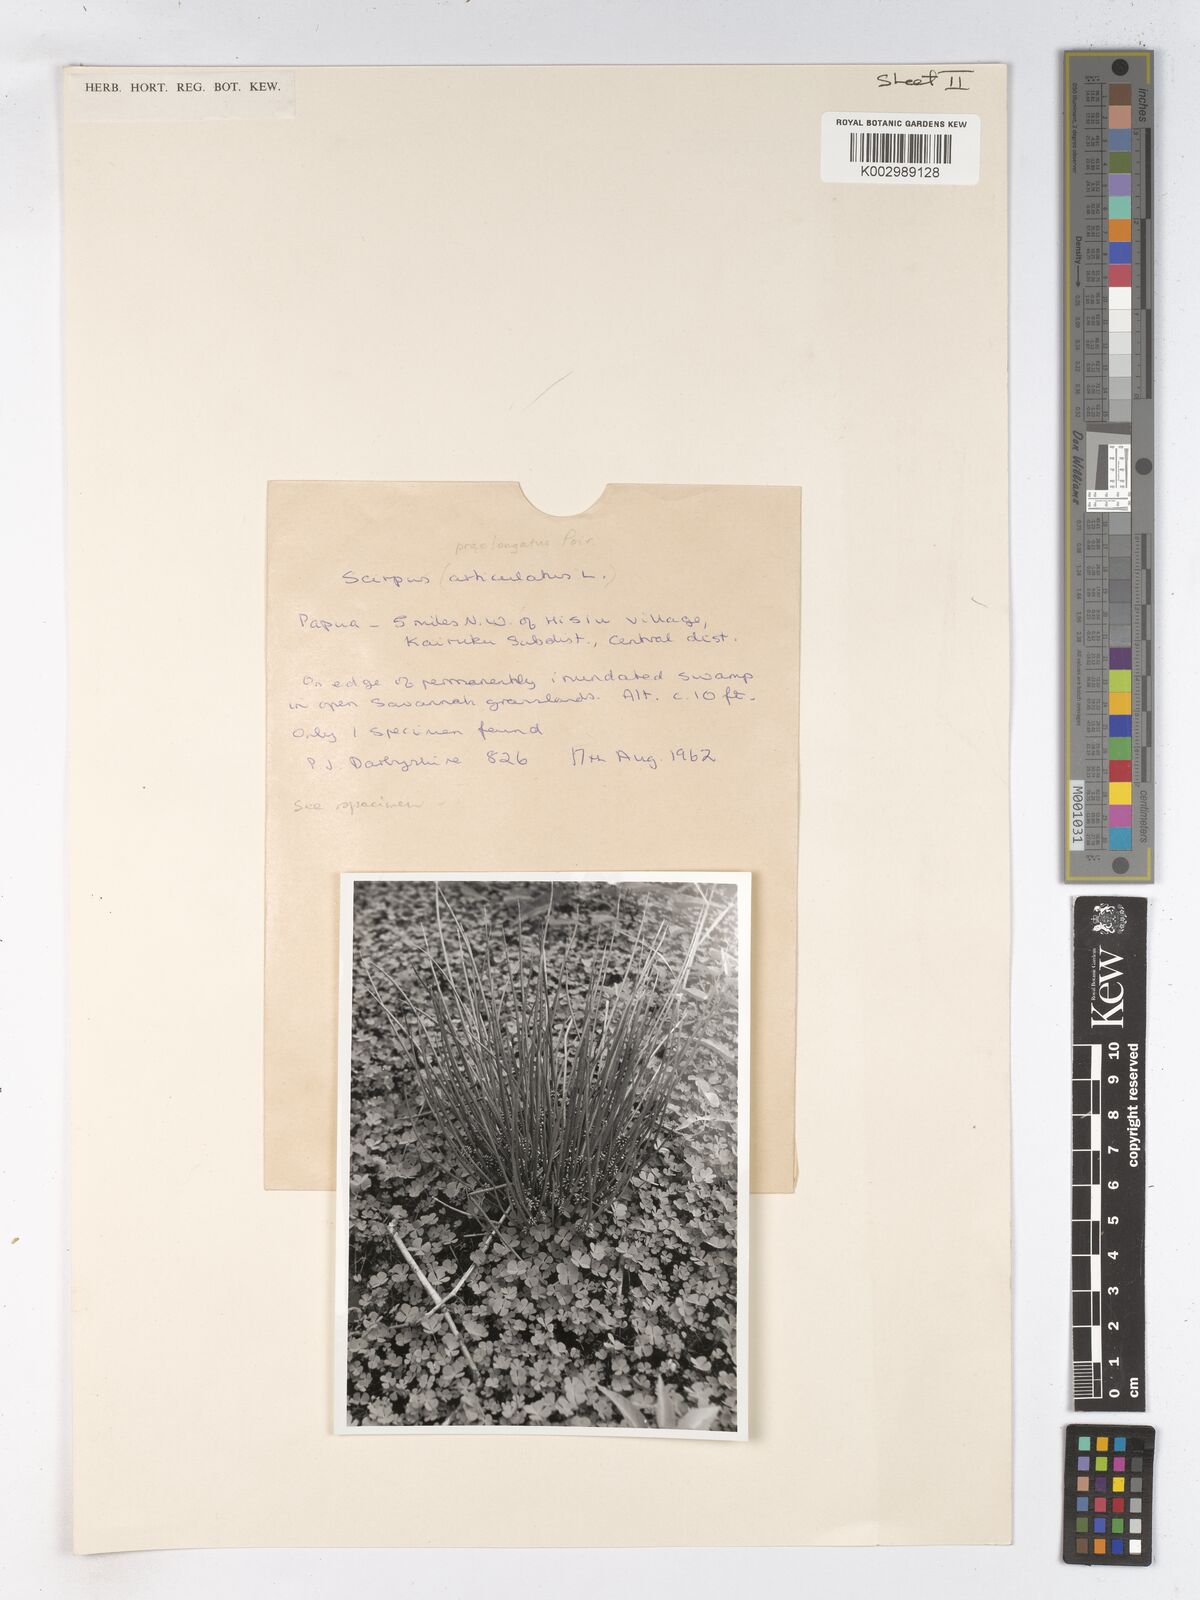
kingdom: Plantae
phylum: Tracheophyta
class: Liliopsida
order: Poales
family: Cyperaceae
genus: Schoenoplectiella
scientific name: Schoenoplectiella praelongata
